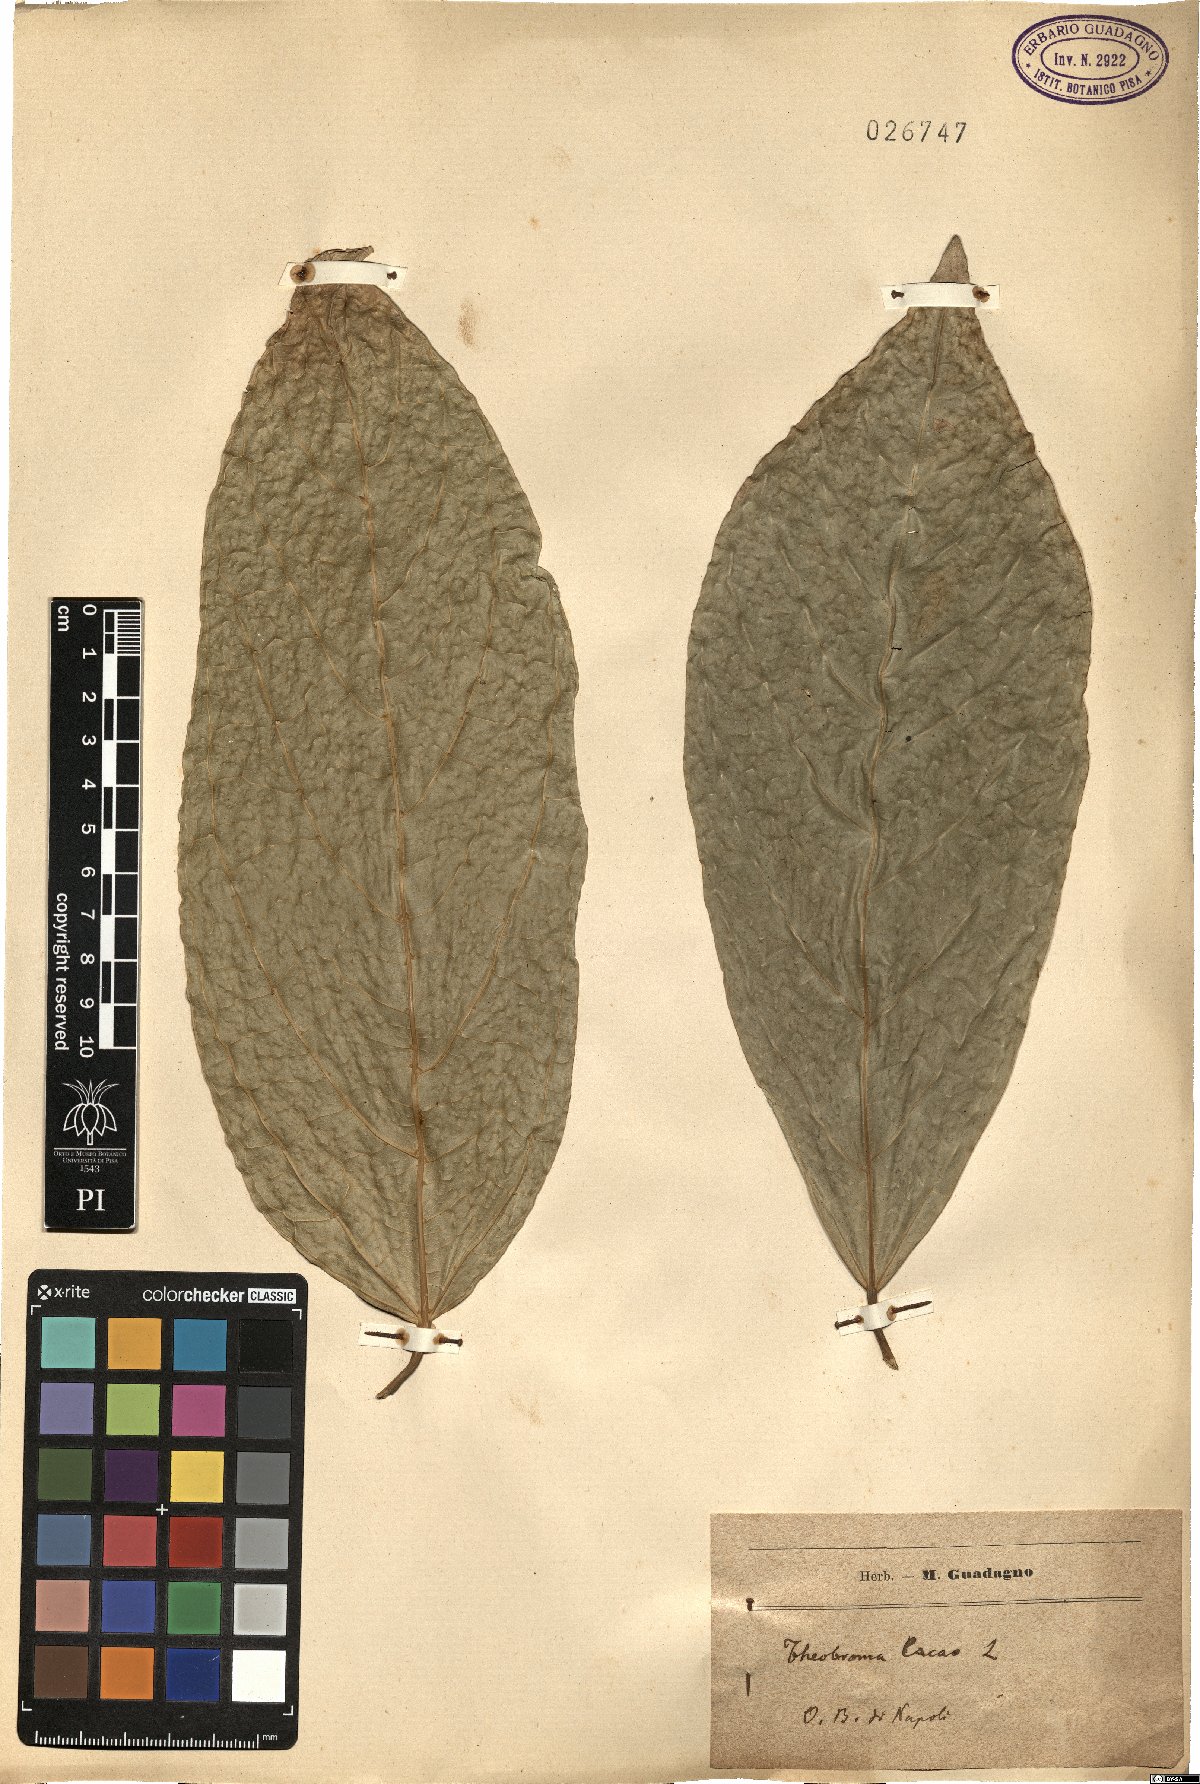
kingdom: Plantae
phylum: Tracheophyta
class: Magnoliopsida
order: Malvales
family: Malvaceae
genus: Theobroma
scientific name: Theobroma cacao
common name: Cocoa
